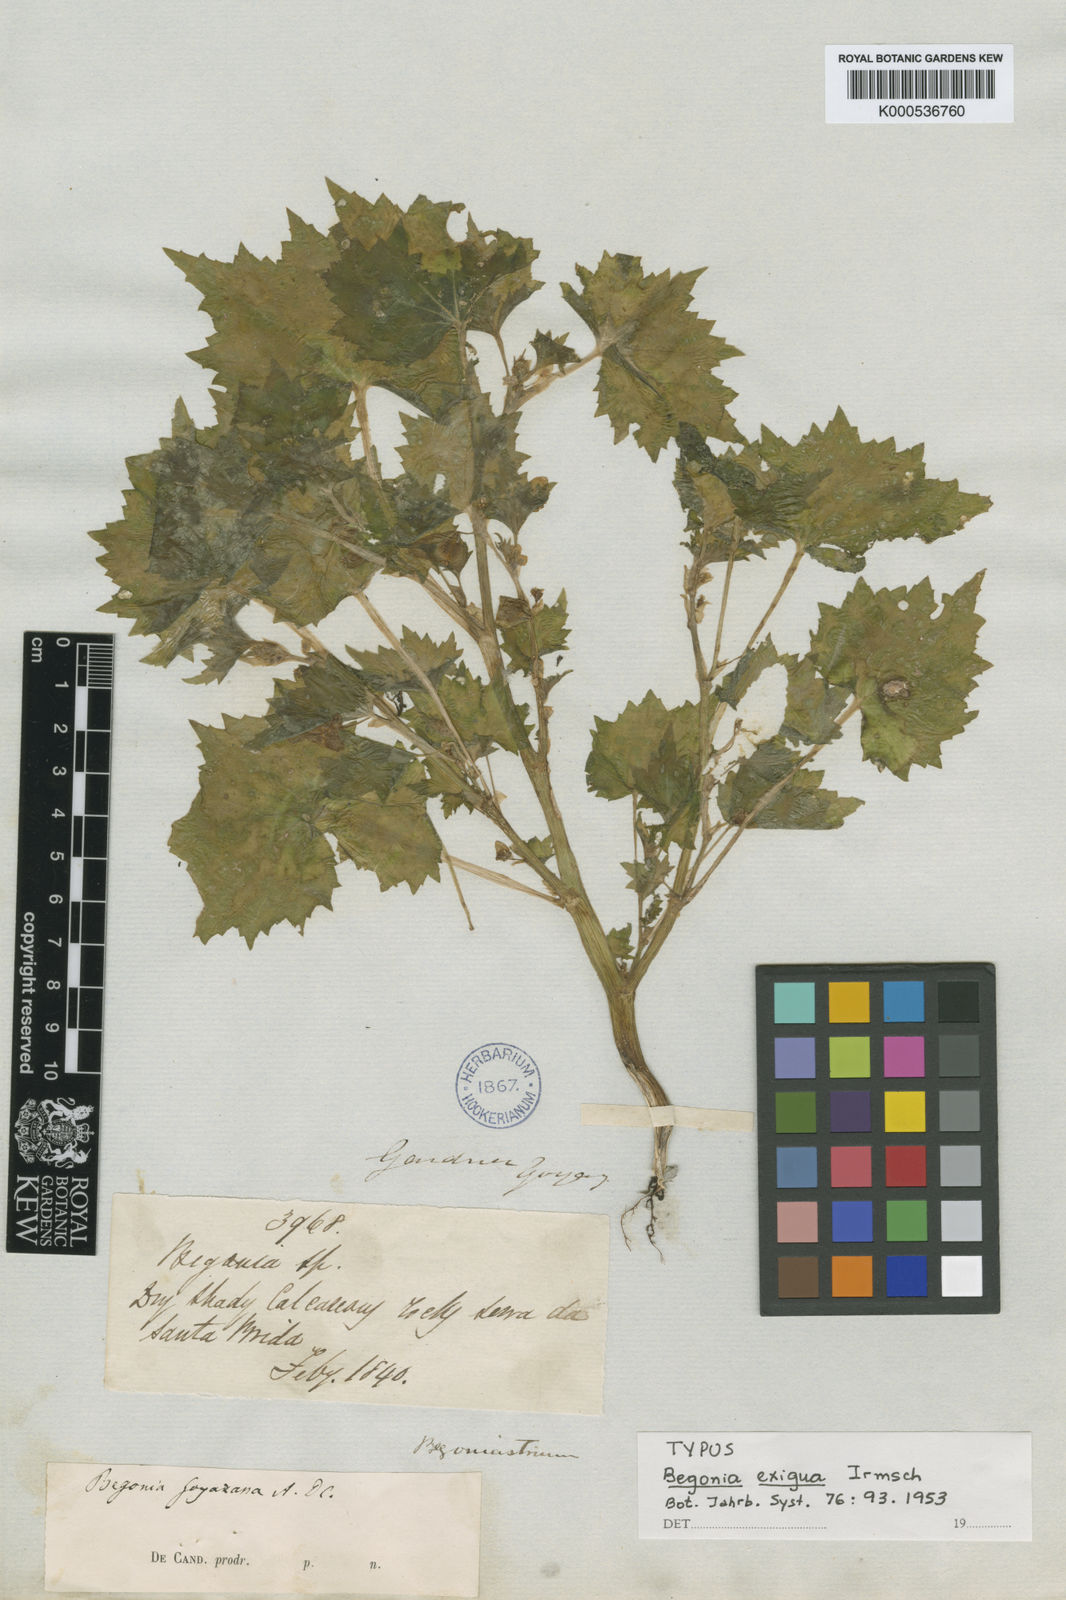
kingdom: Plantae
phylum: Tracheophyta
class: Magnoliopsida
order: Cucurbitales
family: Begoniaceae
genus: Begonia
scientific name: Begonia exigua
